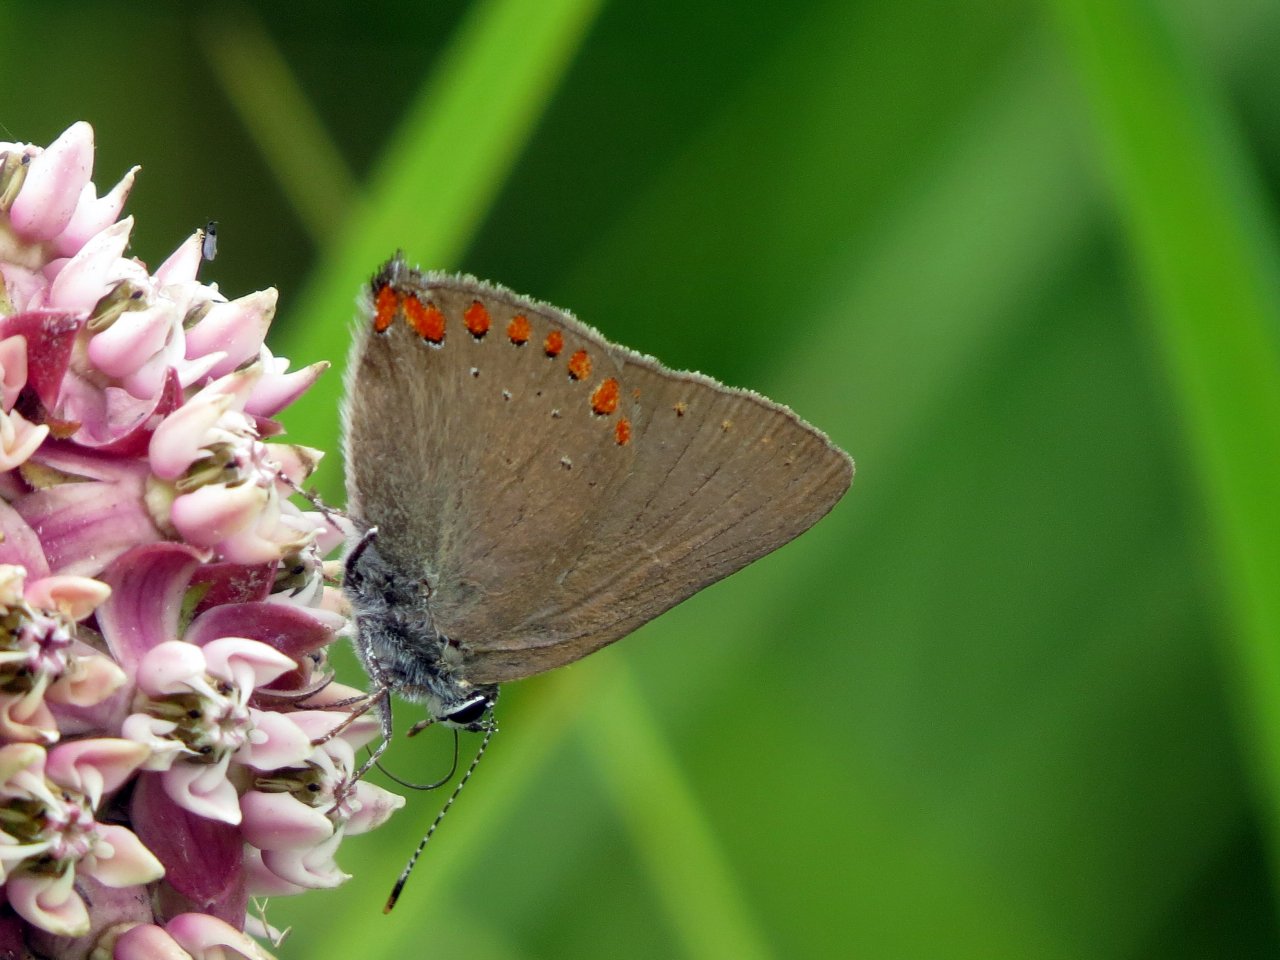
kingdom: Animalia
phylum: Arthropoda
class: Insecta
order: Lepidoptera
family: Lycaenidae
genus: Harkenclenus
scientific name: Harkenclenus titus
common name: Coral Hairstreak
